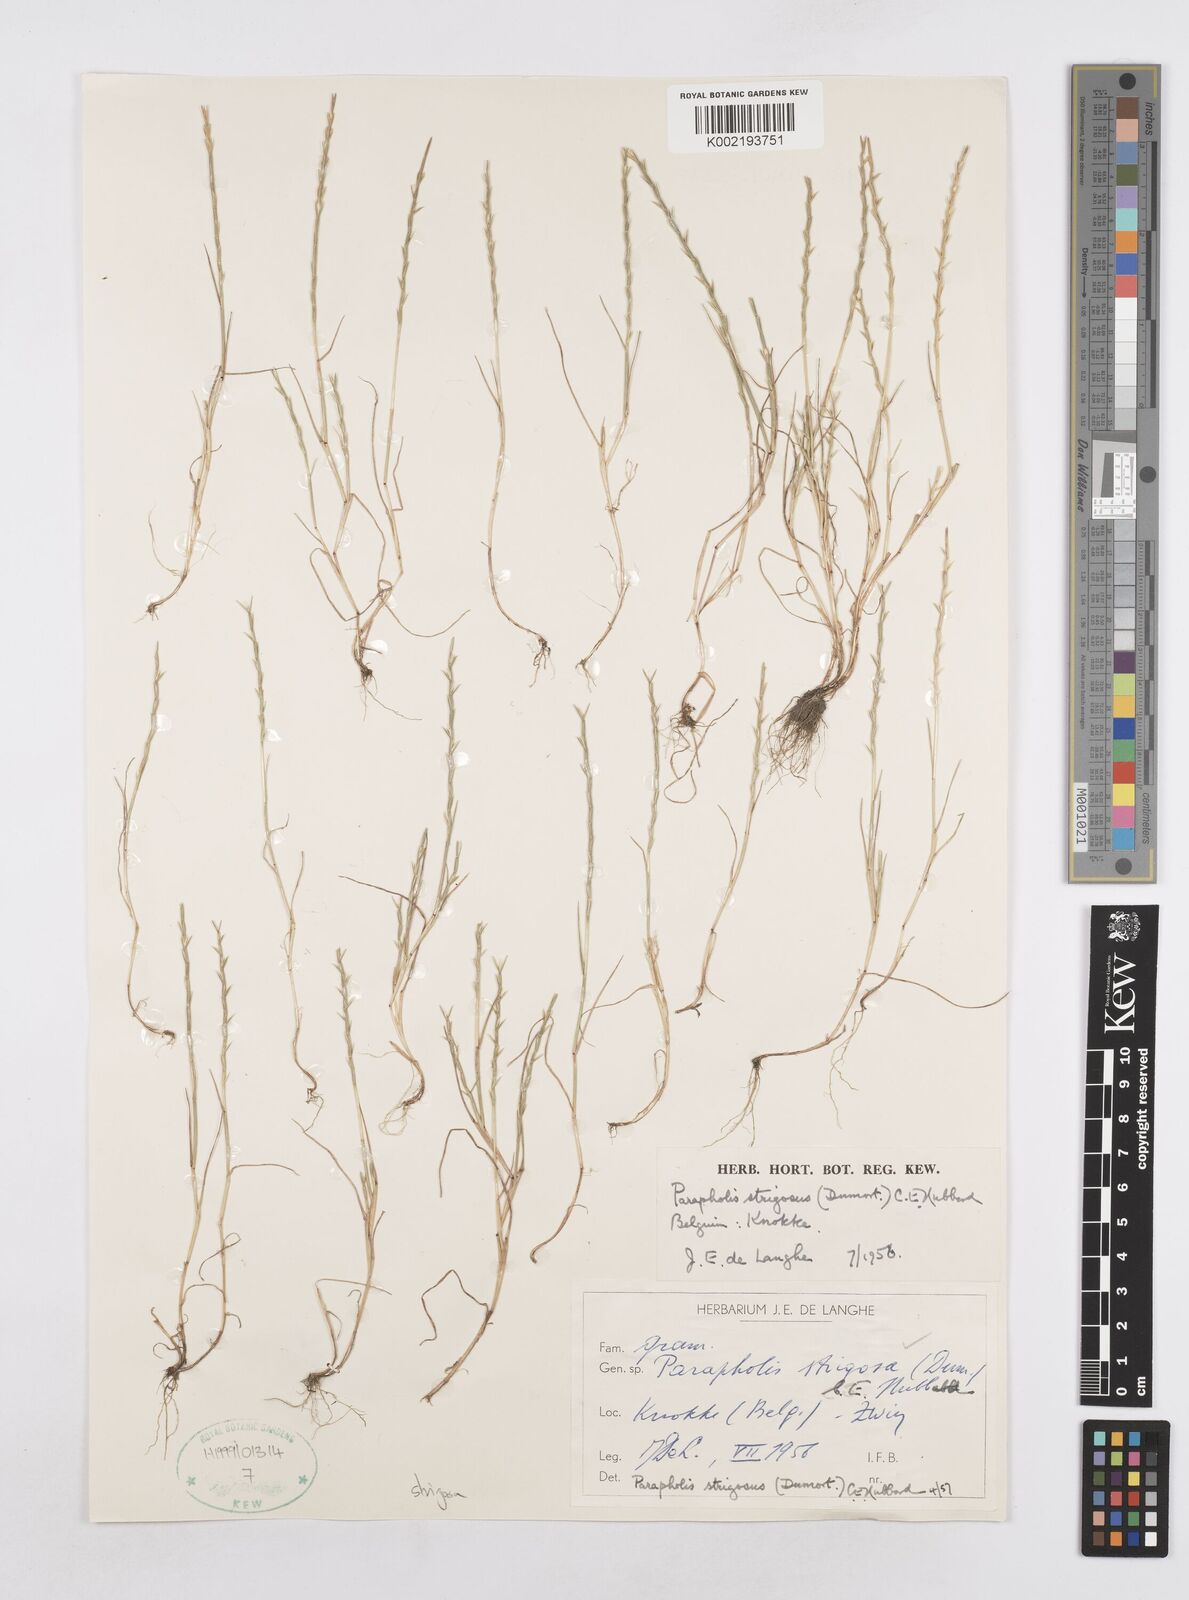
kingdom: Plantae
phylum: Tracheophyta
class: Liliopsida
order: Poales
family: Poaceae
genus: Parapholis
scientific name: Parapholis strigosa
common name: Hard-grass
